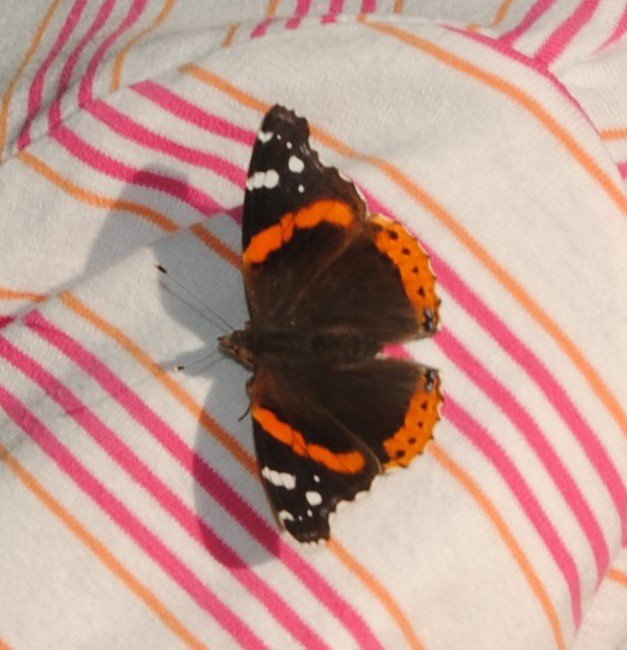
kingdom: Animalia
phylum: Arthropoda
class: Insecta
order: Lepidoptera
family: Nymphalidae
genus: Vanessa
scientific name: Vanessa atalanta
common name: Red Admiral
